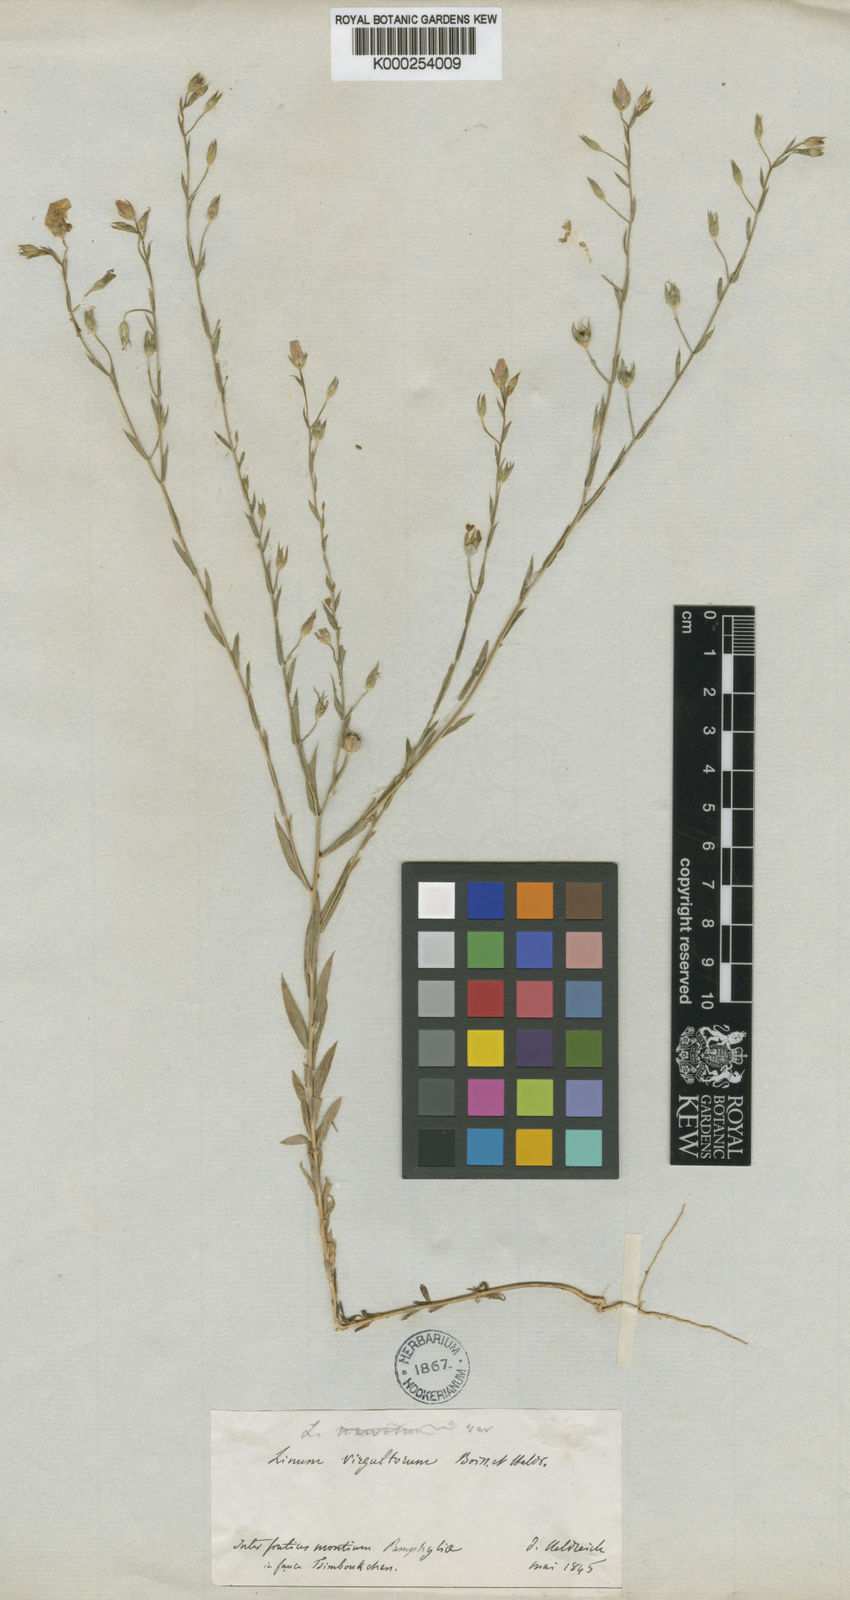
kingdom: Plantae
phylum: Tracheophyta
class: Magnoliopsida
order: Malpighiales
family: Linaceae
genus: Linum
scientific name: Linum virgultorum
